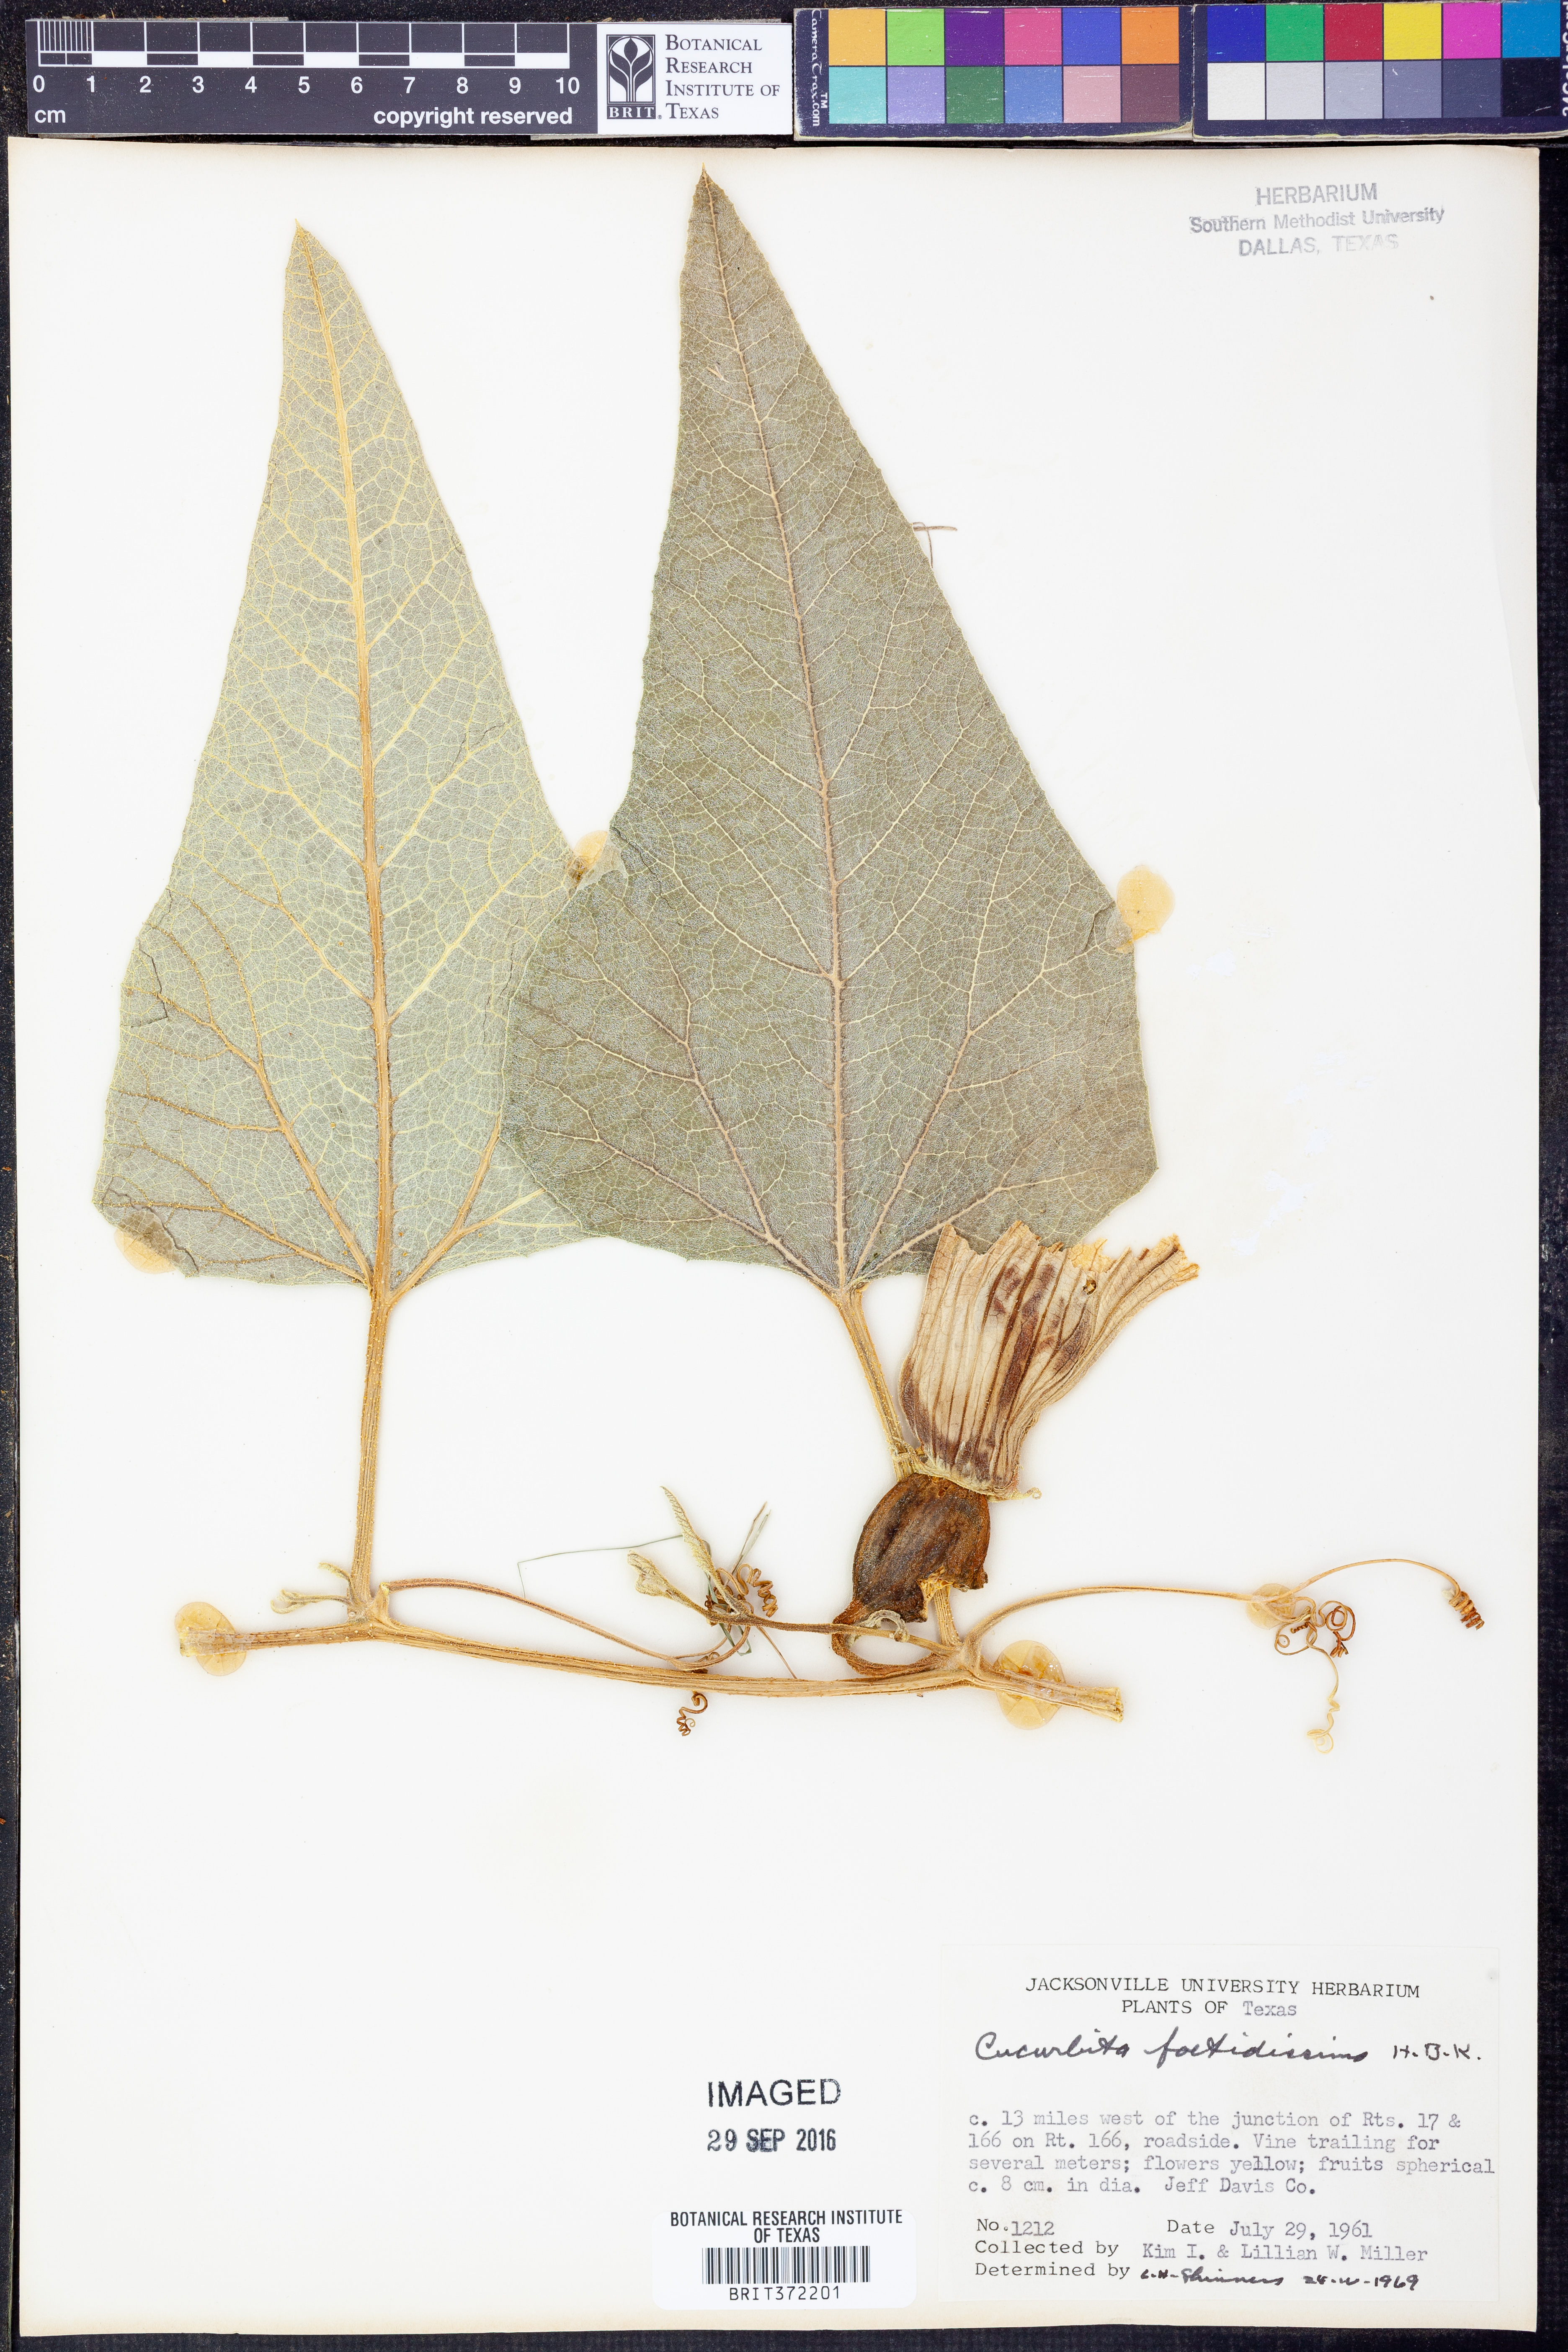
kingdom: Plantae
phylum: Tracheophyta
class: Magnoliopsida
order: Cucurbitales
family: Cucurbitaceae
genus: Cucurbita
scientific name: Cucurbita foetidissima
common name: Buffalo gourd
